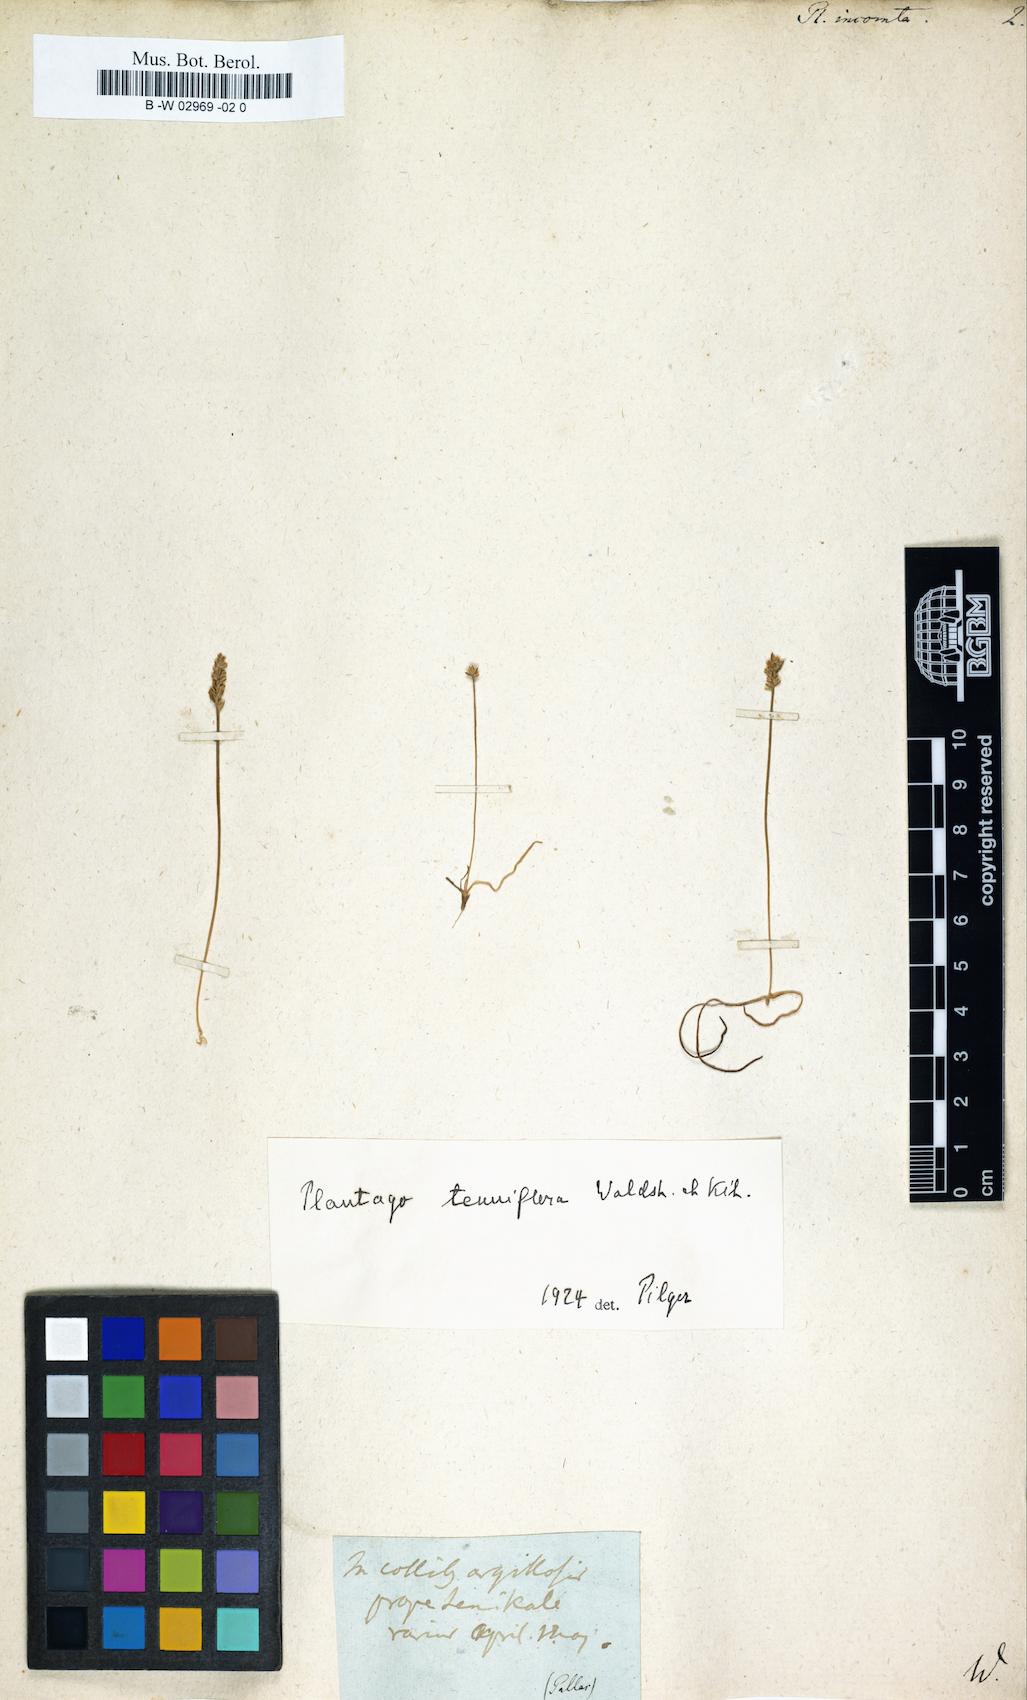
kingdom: Plantae
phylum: Tracheophyta
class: Magnoliopsida
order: Lamiales
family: Plantaginaceae
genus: Plantago
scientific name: Plantago tenuiflora
